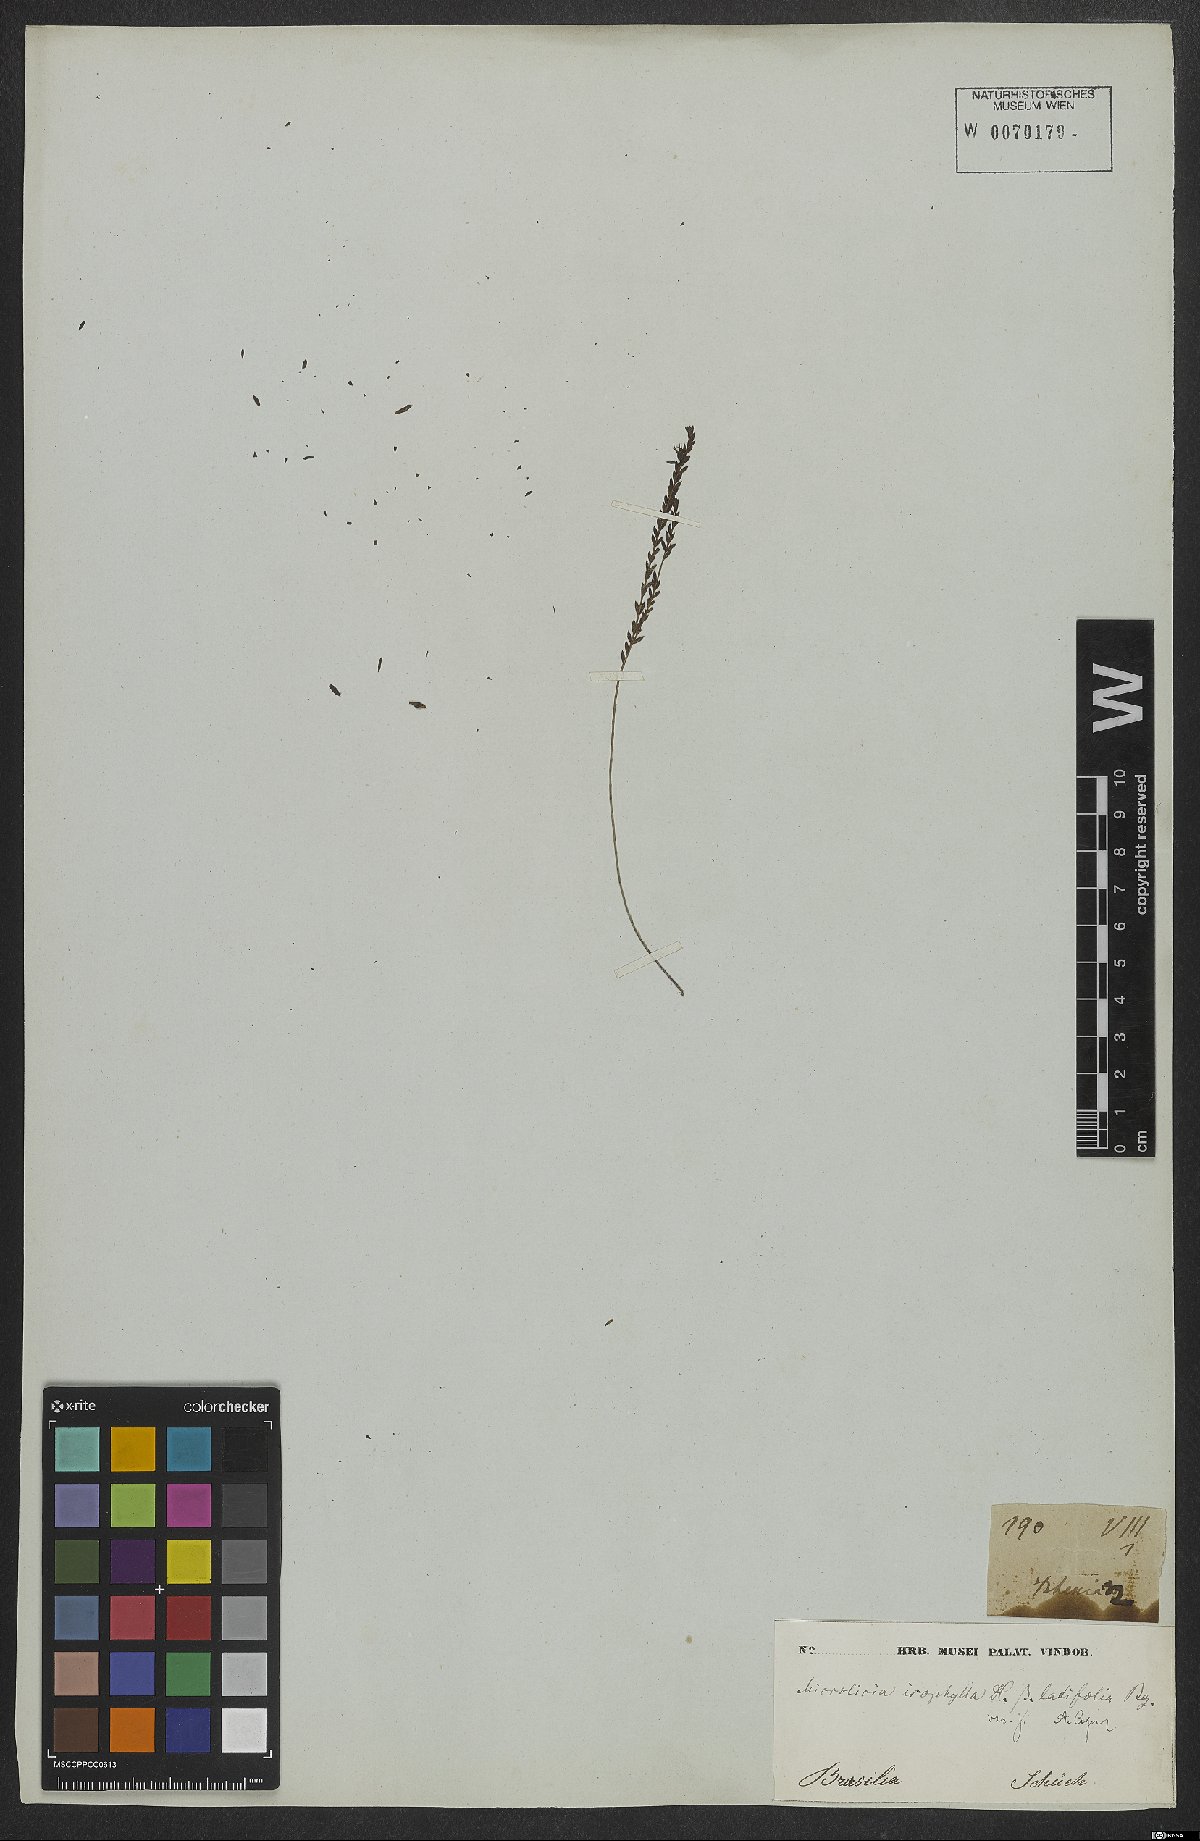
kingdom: Plantae
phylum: Tracheophyta
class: Magnoliopsida
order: Myrtales
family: Melastomataceae
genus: Microlicia
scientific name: Microlicia isophylla
